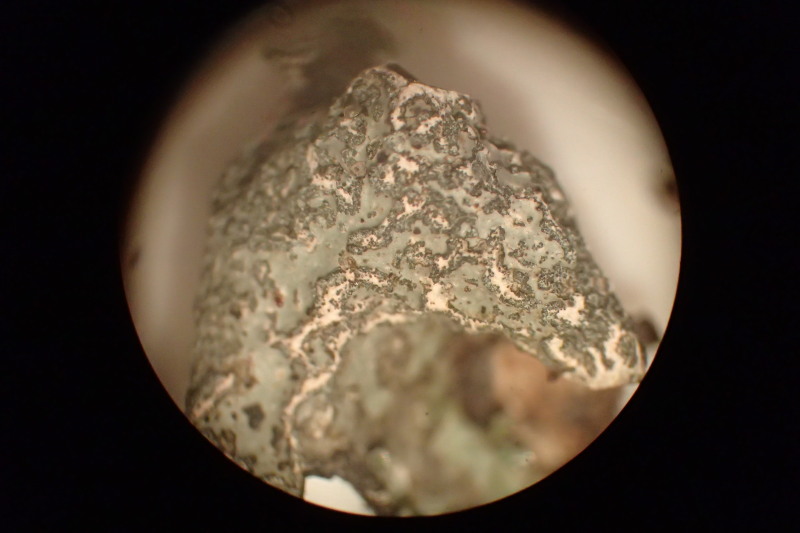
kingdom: Fungi
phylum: Ascomycota
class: Lecanoromycetes
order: Lecanorales
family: Parmeliaceae
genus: Parmelia
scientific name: Parmelia sulcata
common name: rynket skållav
